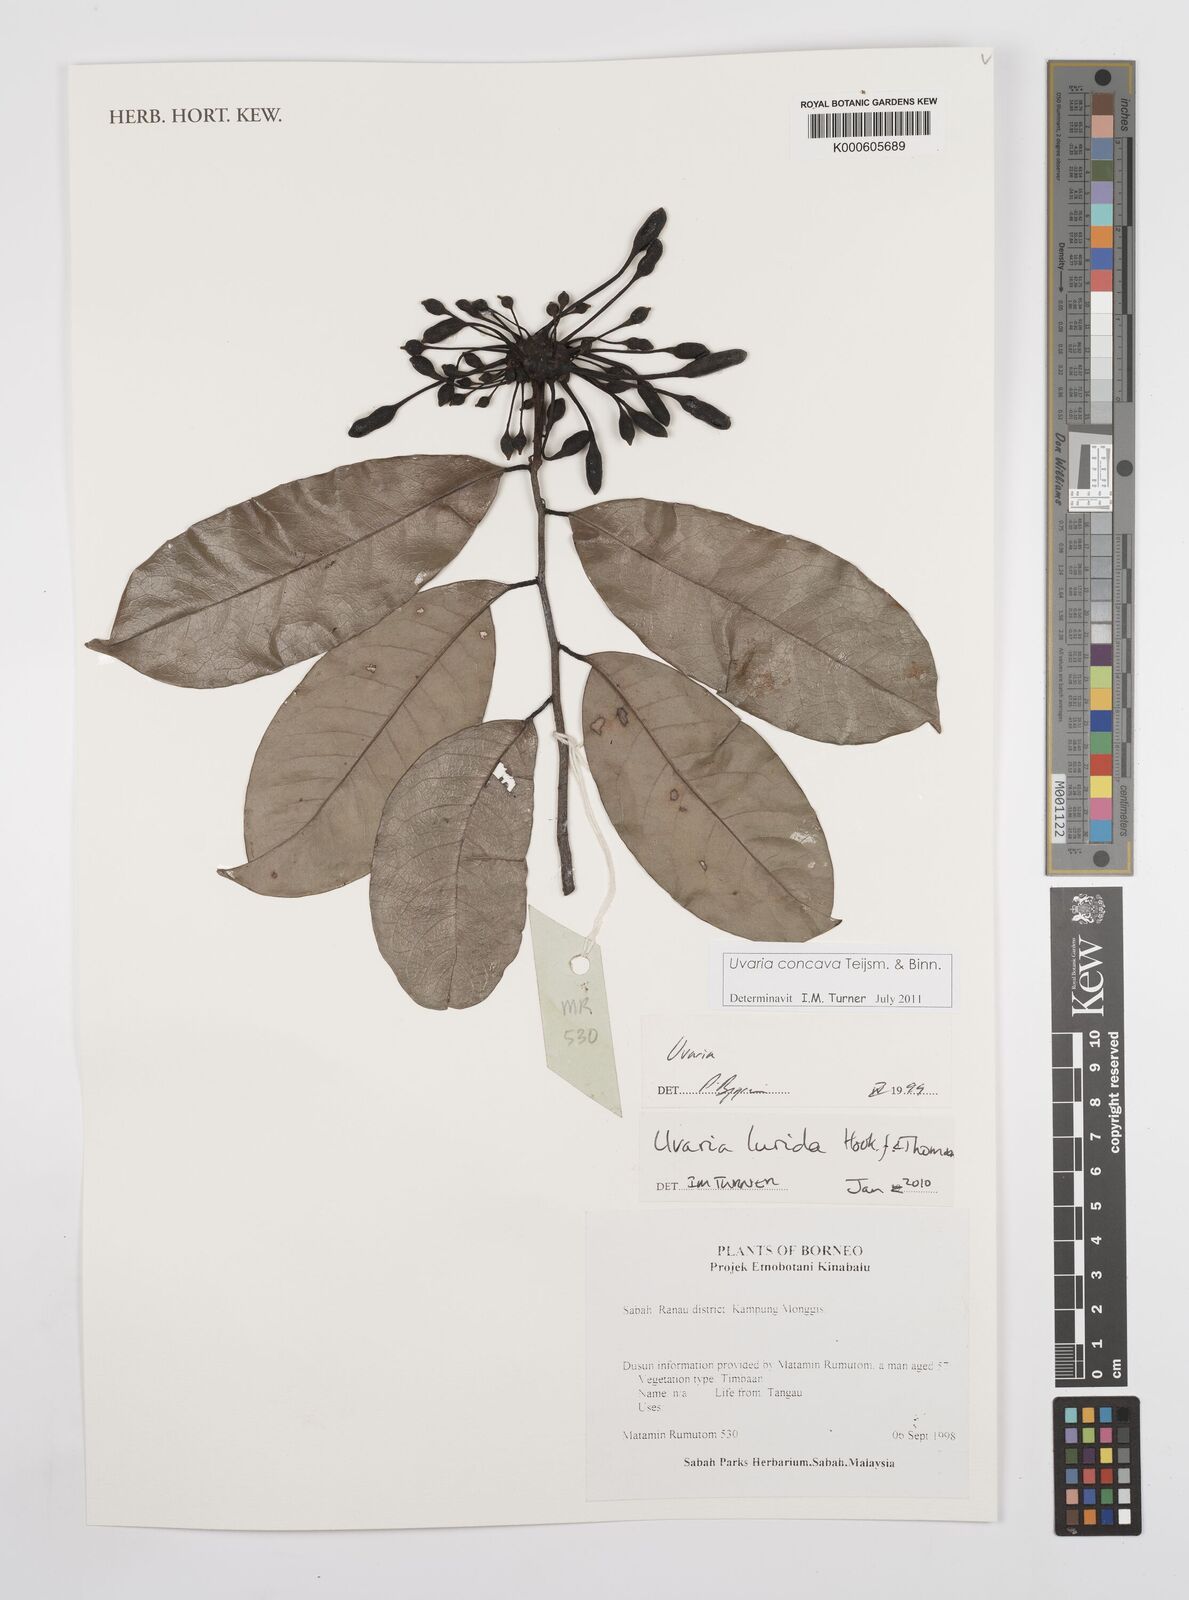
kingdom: Plantae
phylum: Tracheophyta
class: Magnoliopsida
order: Magnoliales
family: Annonaceae
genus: Uvaria
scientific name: Uvaria concava
